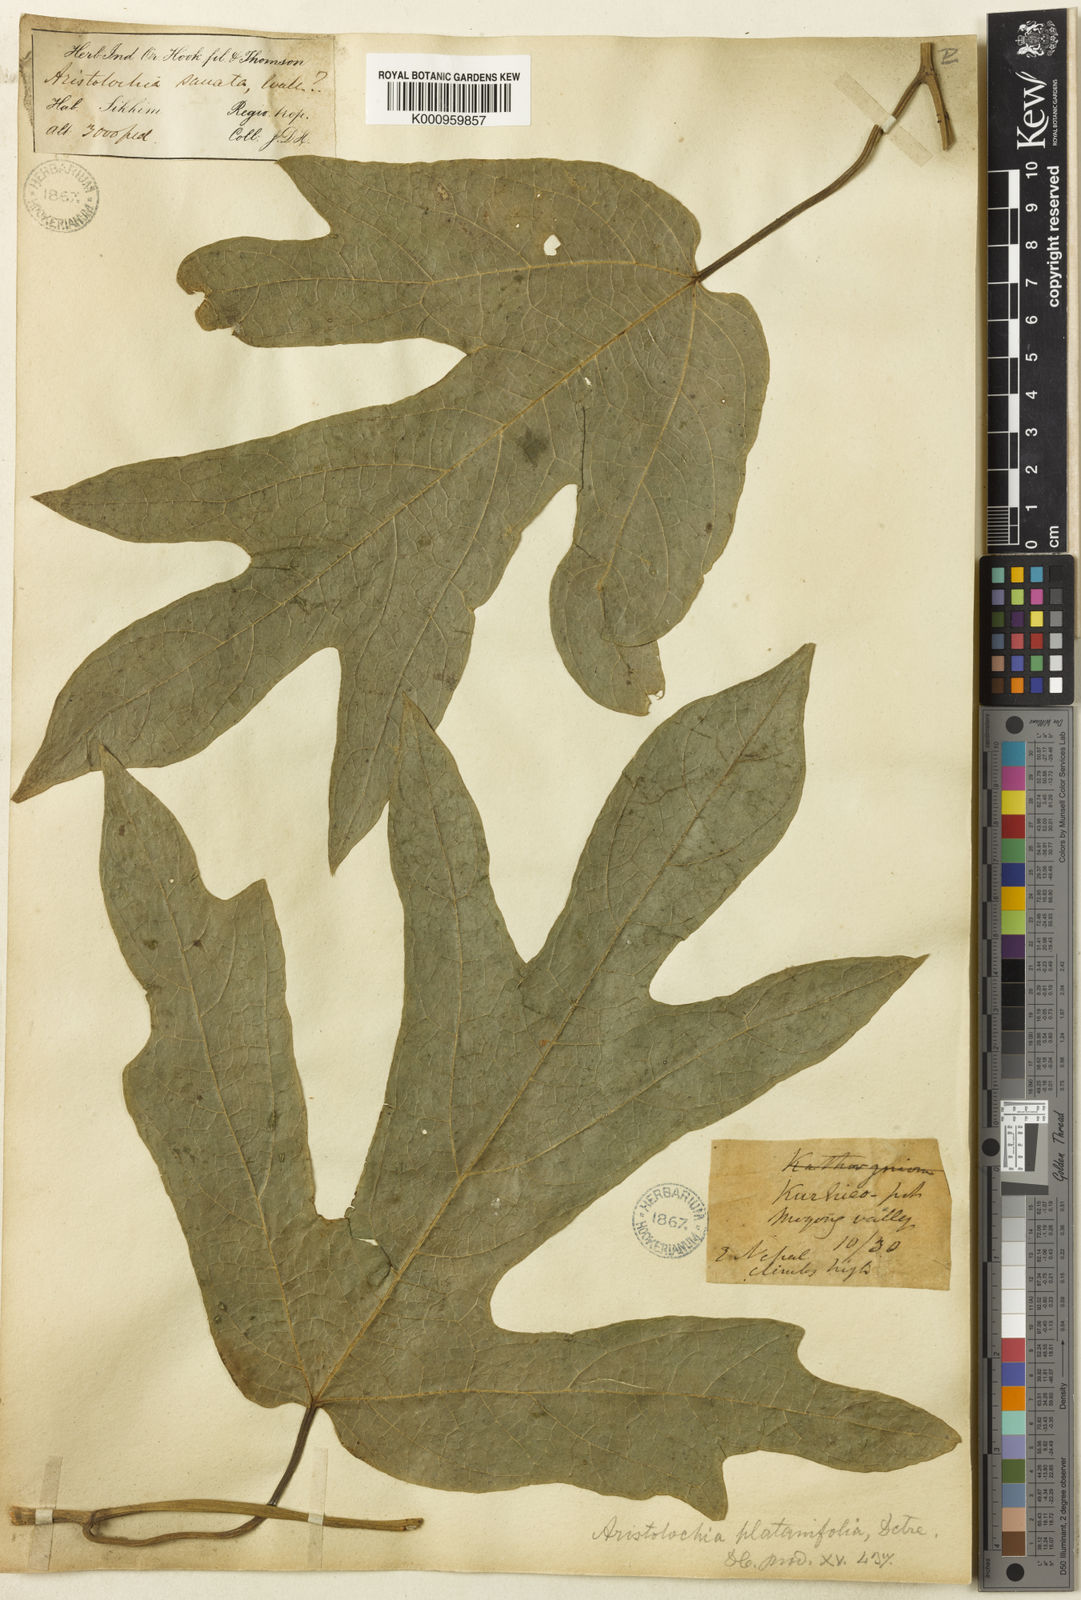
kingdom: Plantae
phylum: Tracheophyta
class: Magnoliopsida
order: Piperales
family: Aristolochiaceae
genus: Isotrema
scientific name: Isotrema
